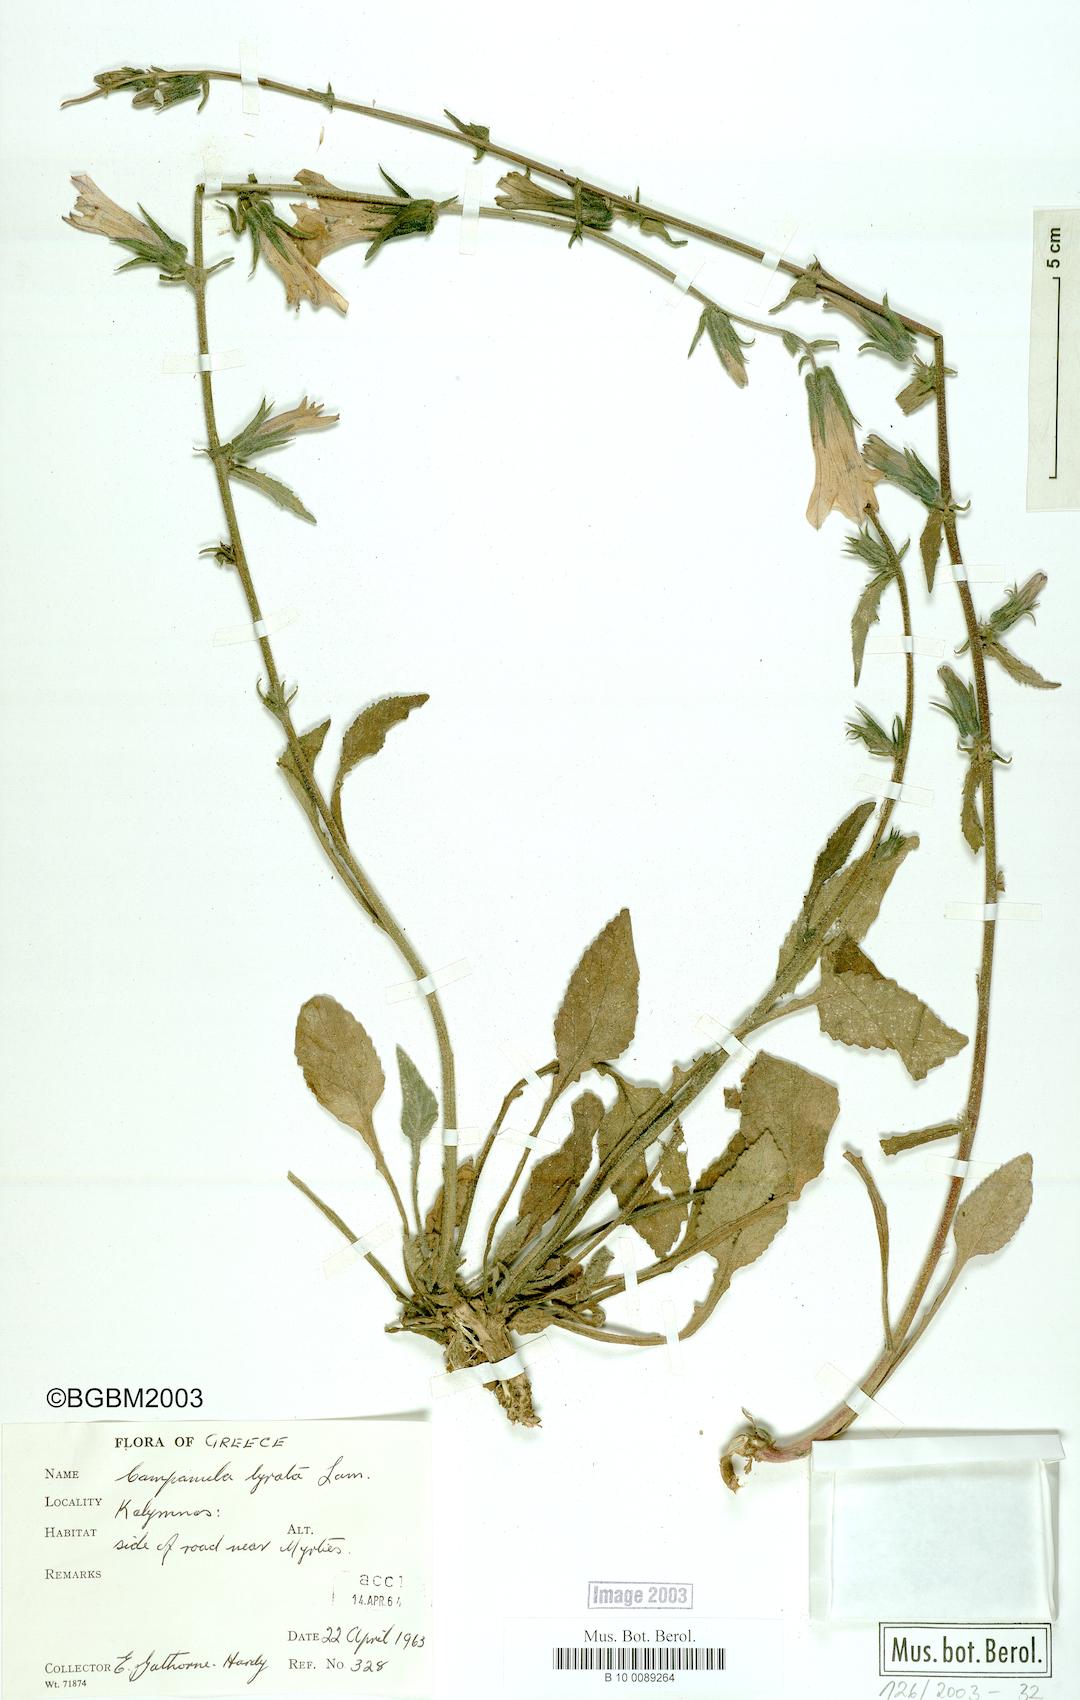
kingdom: Plantae
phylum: Tracheophyta
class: Magnoliopsida
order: Asterales
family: Campanulaceae
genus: Campanula
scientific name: Campanula lyrata
